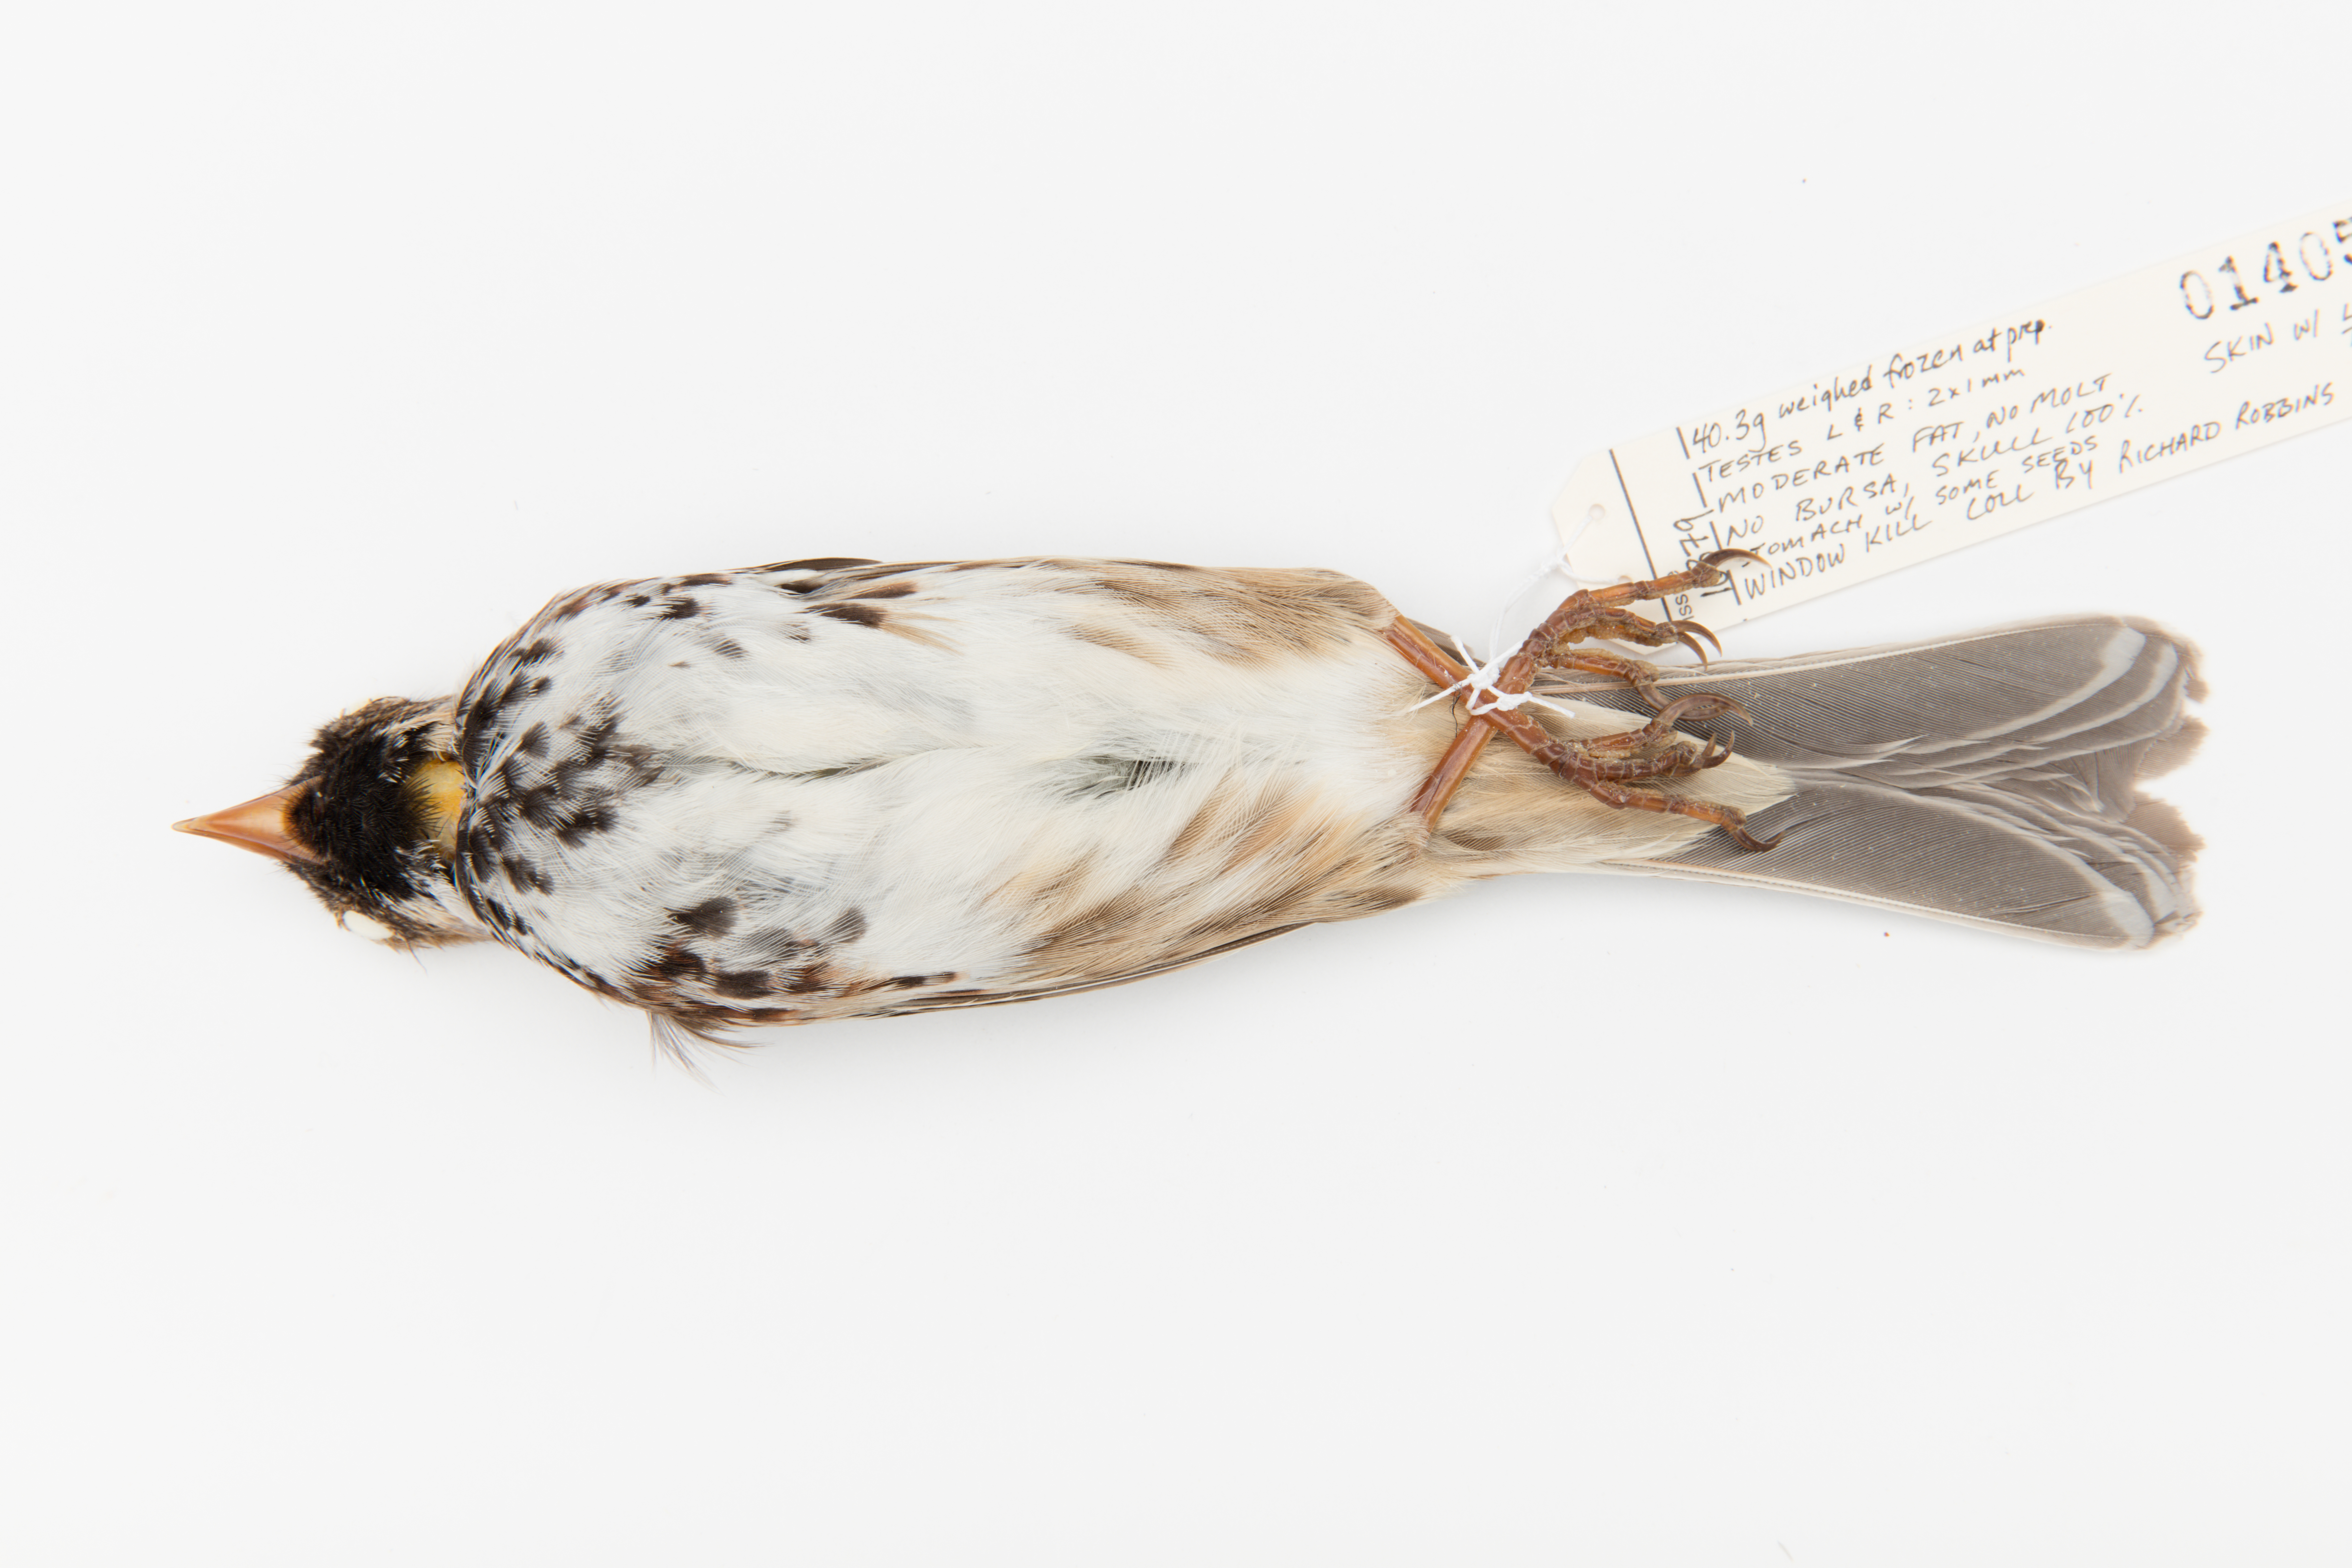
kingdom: Animalia
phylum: Chordata
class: Aves
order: Passeriformes
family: Passerellidae
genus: Zonotrichia
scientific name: Zonotrichia querula
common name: Harris's sparrow
